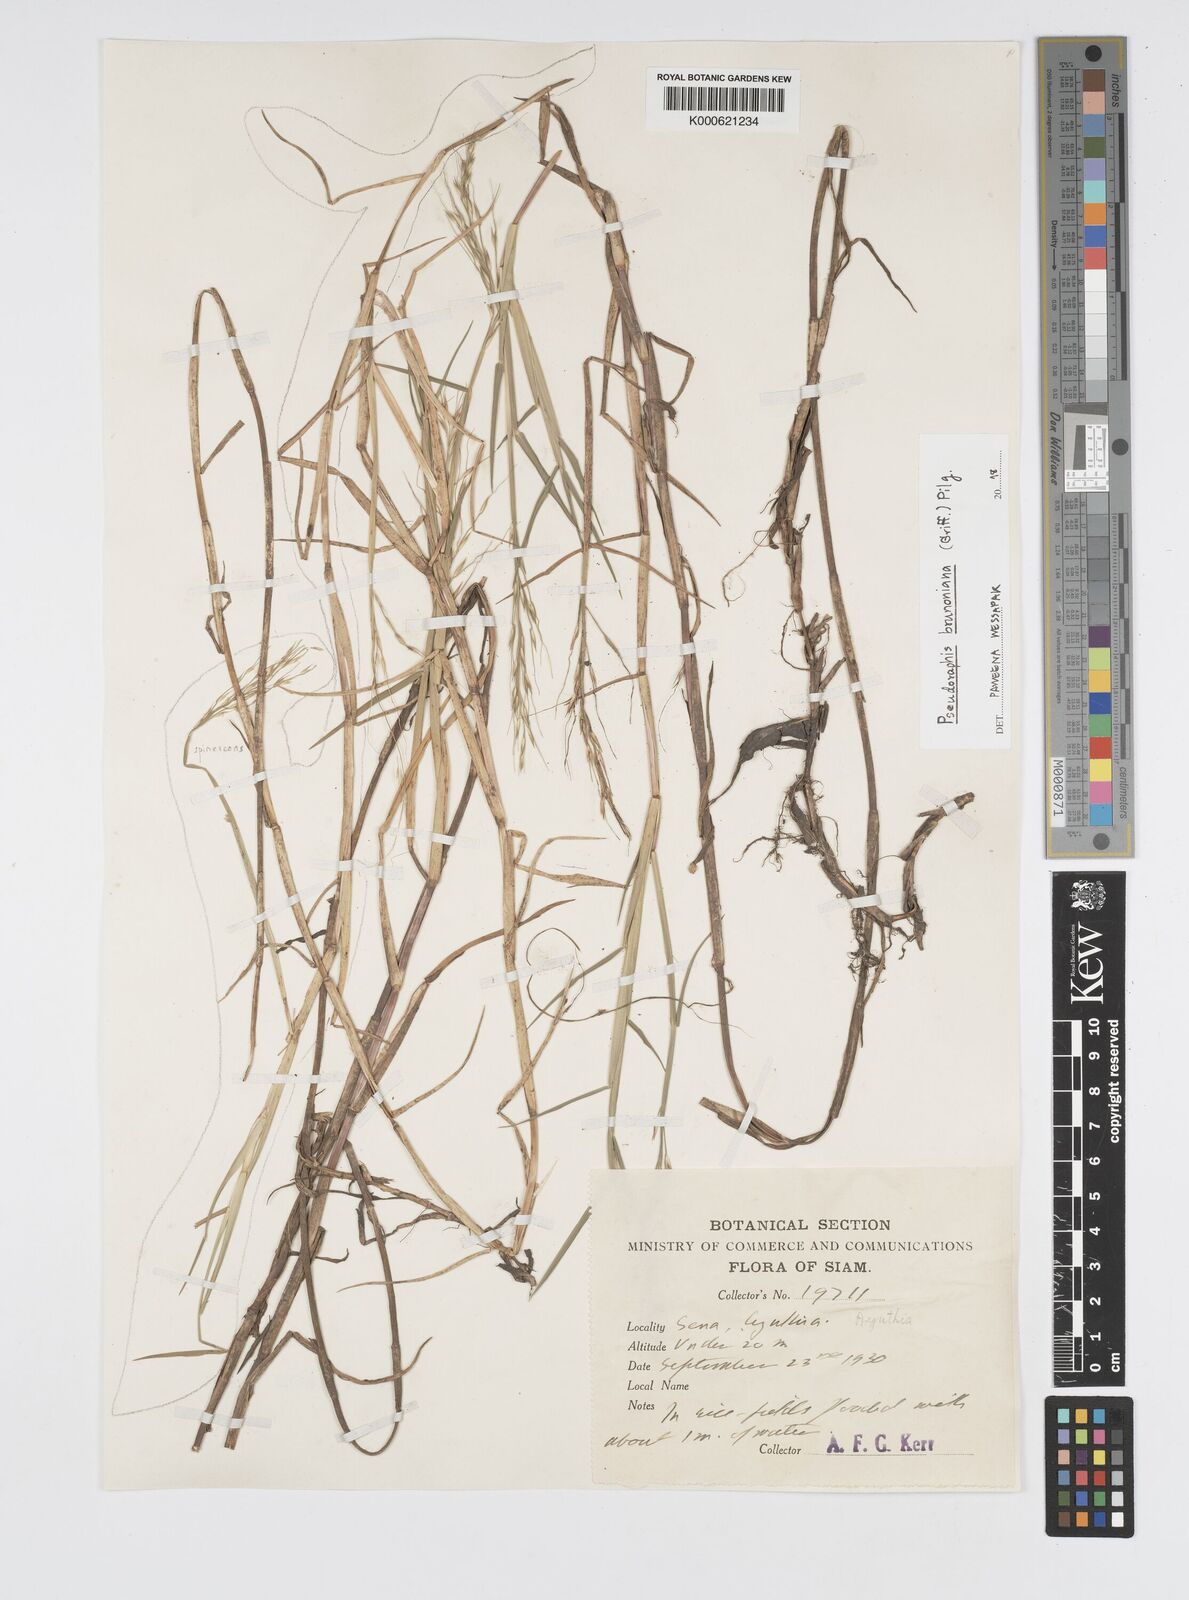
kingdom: Plantae
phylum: Tracheophyta
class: Liliopsida
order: Poales
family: Poaceae
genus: Pseudoraphis
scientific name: Pseudoraphis brunoniana
